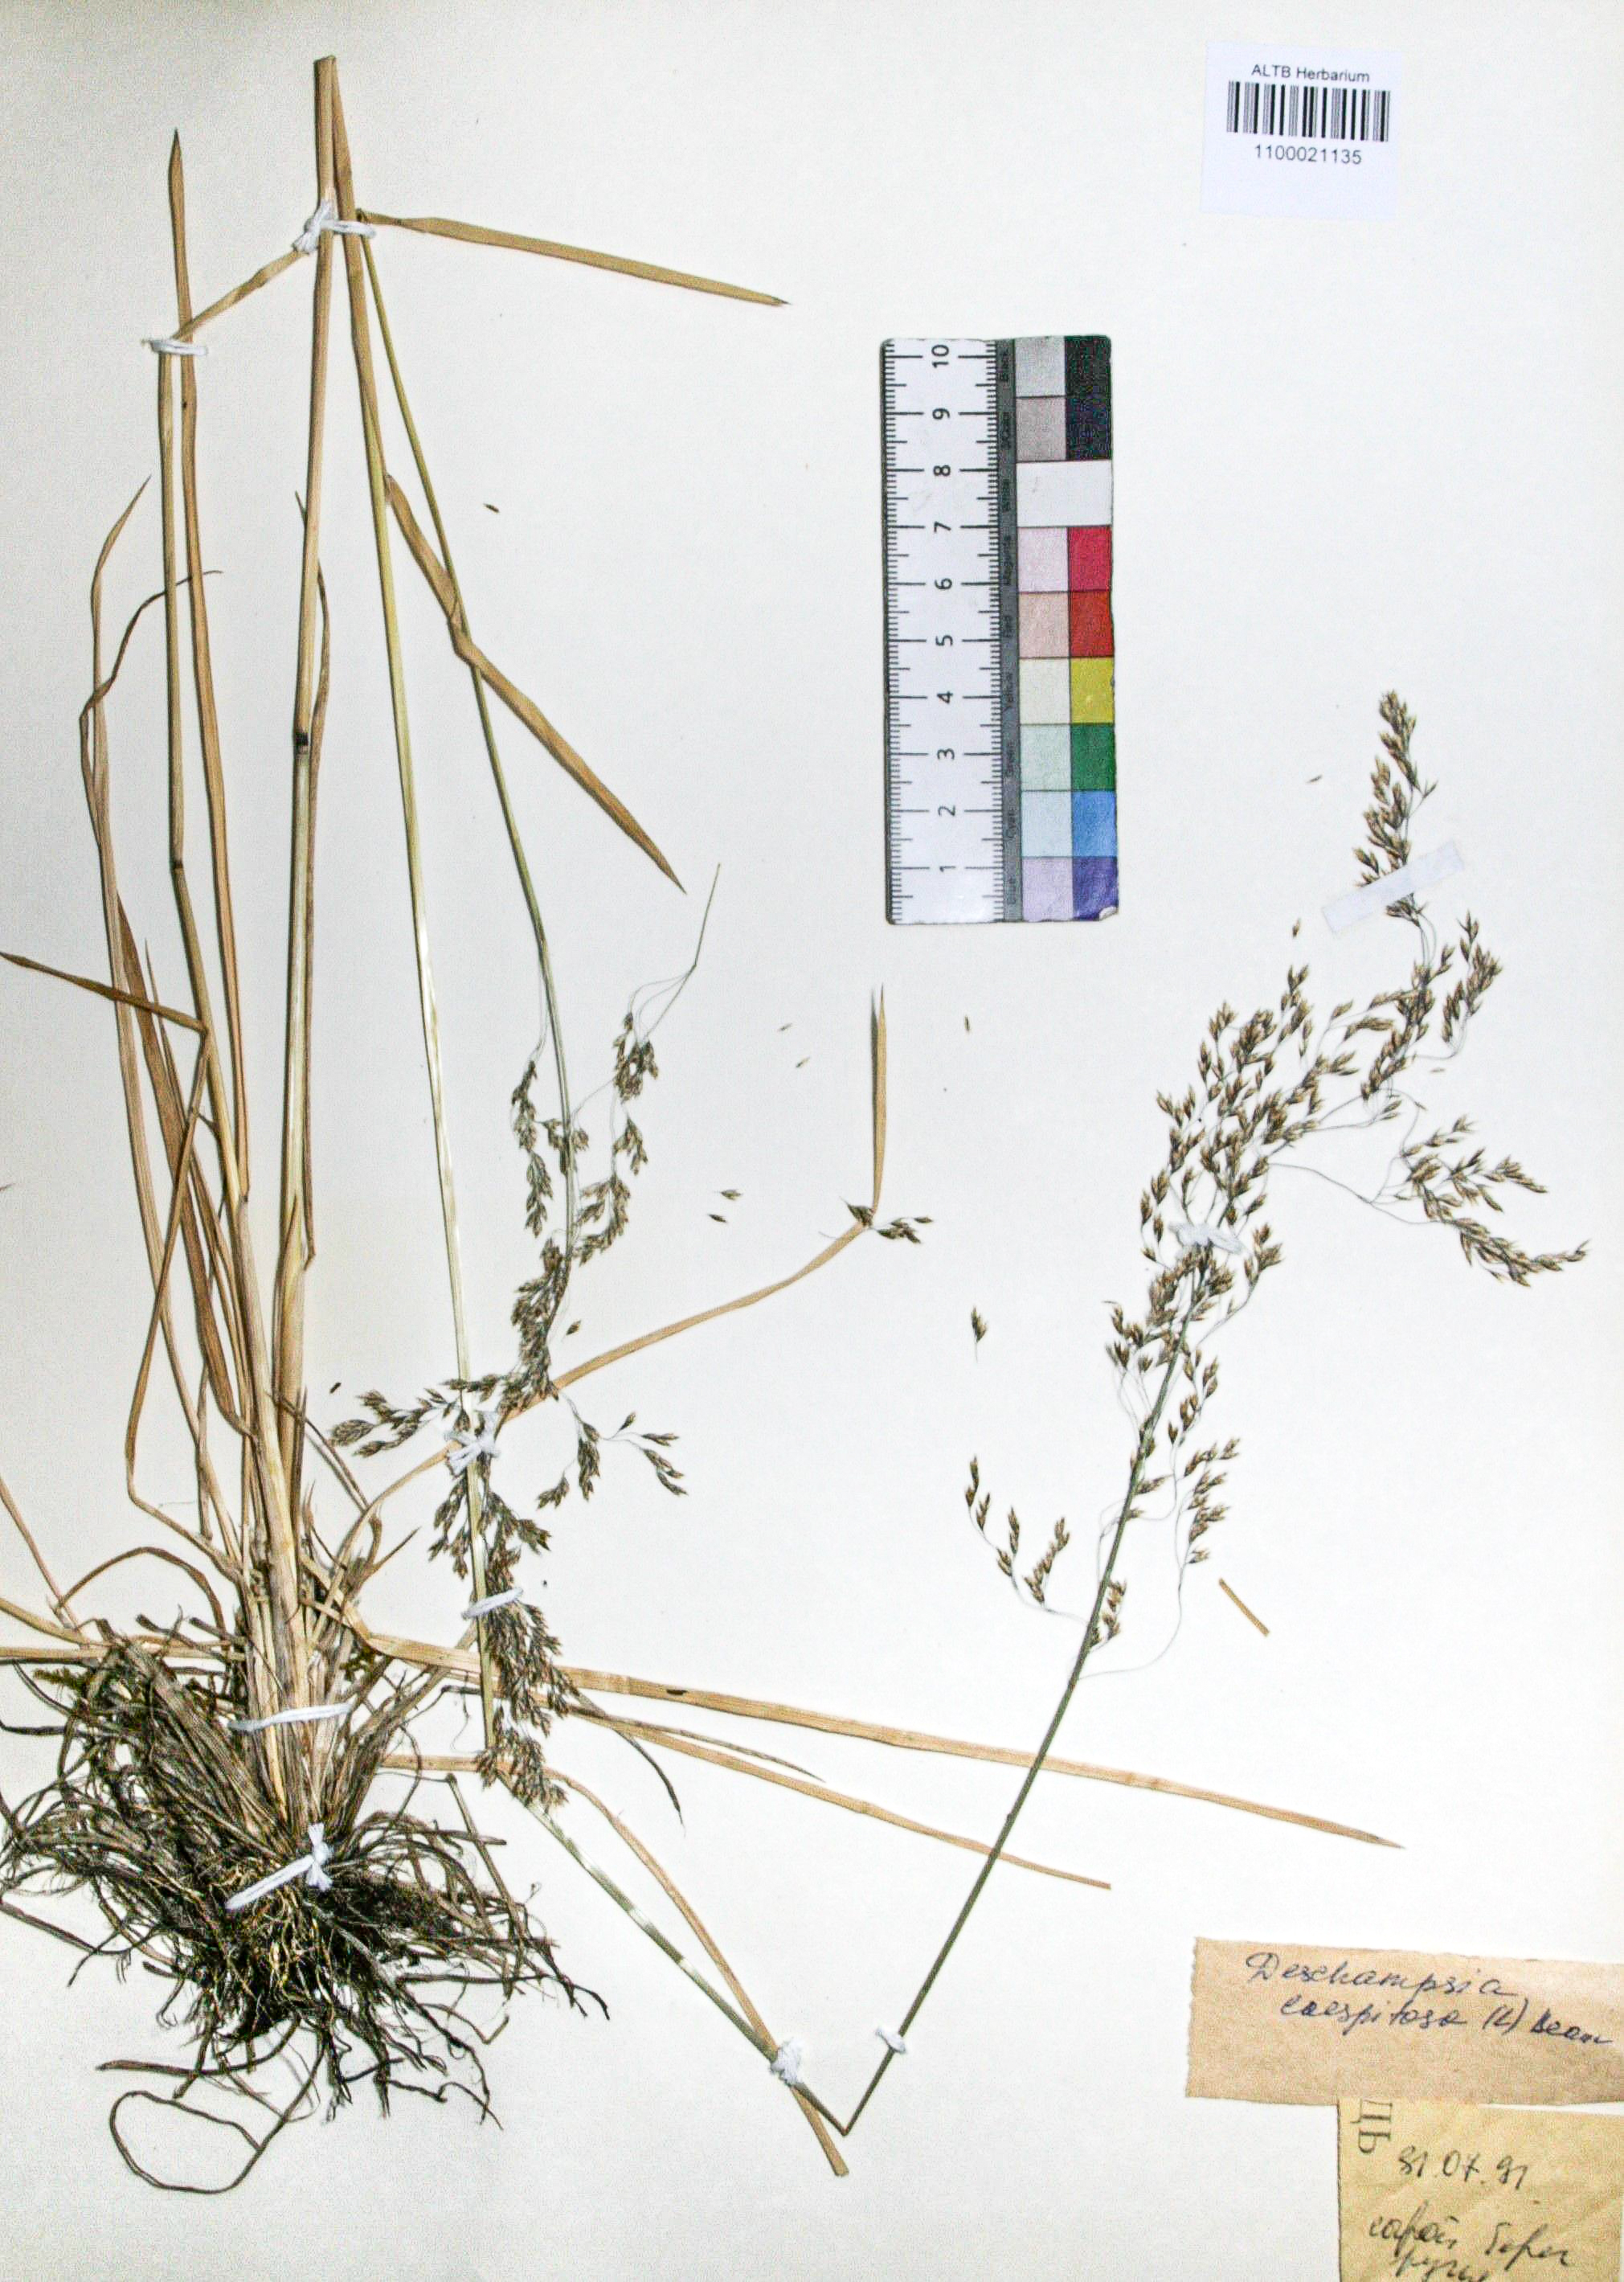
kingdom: Plantae
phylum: Tracheophyta
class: Liliopsida
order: Poales
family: Poaceae
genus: Deschampsia
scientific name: Deschampsia cespitosa
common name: Tufted hair-grass
